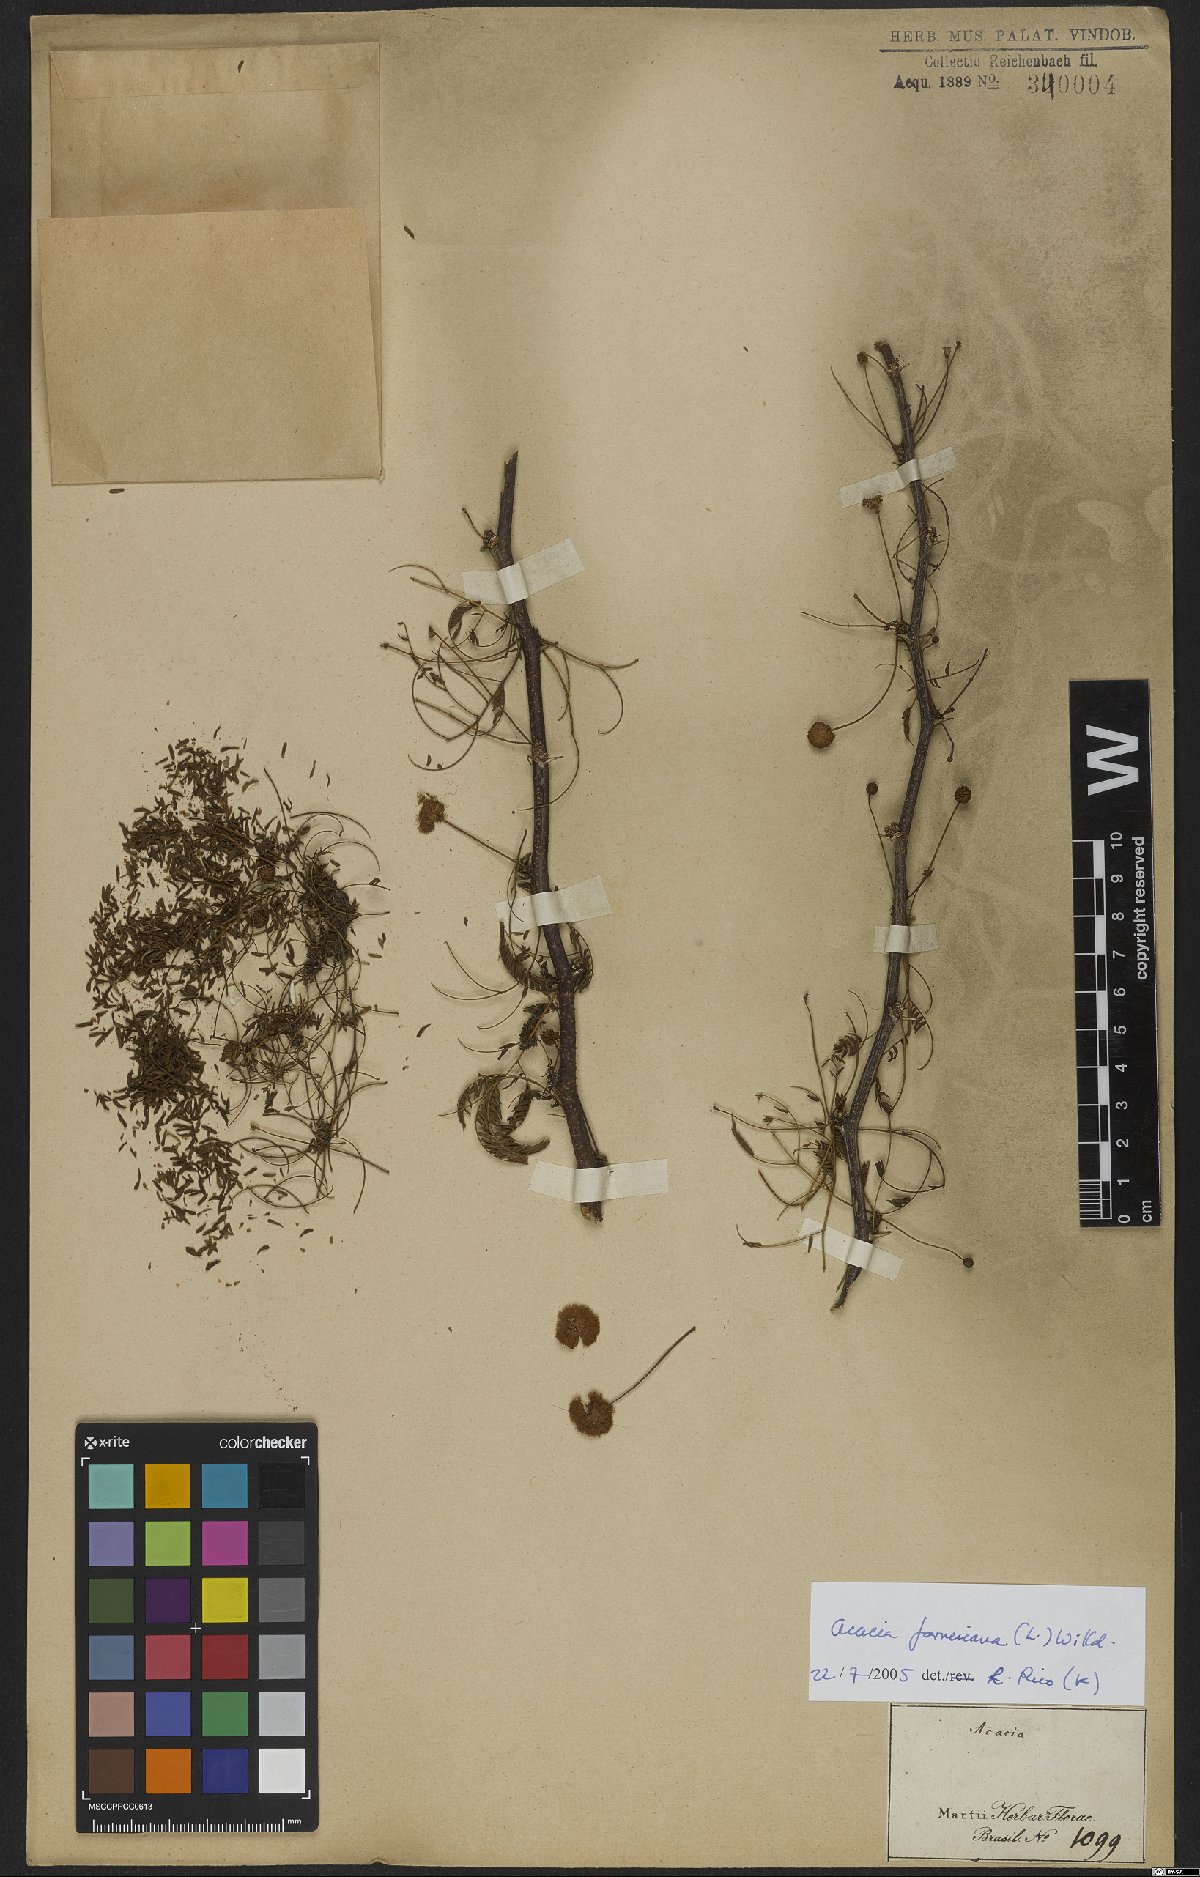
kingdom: Plantae
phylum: Tracheophyta
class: Magnoliopsida
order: Fabales
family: Fabaceae
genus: Vachellia
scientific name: Vachellia farnesiana
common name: Sweet acacia
